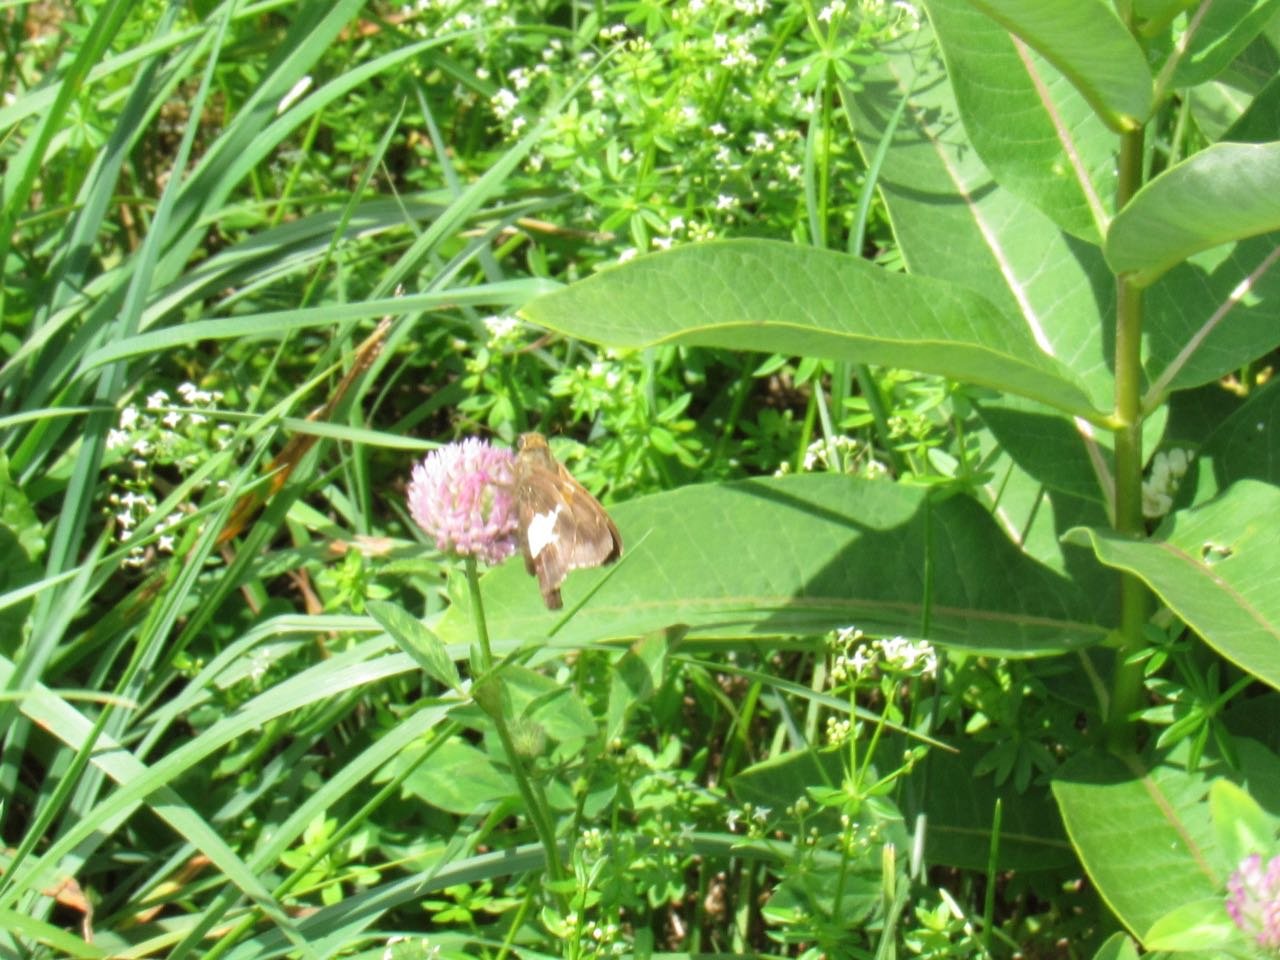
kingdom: Animalia
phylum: Arthropoda
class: Insecta
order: Lepidoptera
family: Hesperiidae
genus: Epargyreus
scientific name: Epargyreus clarus
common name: Silver-spotted Skipper
